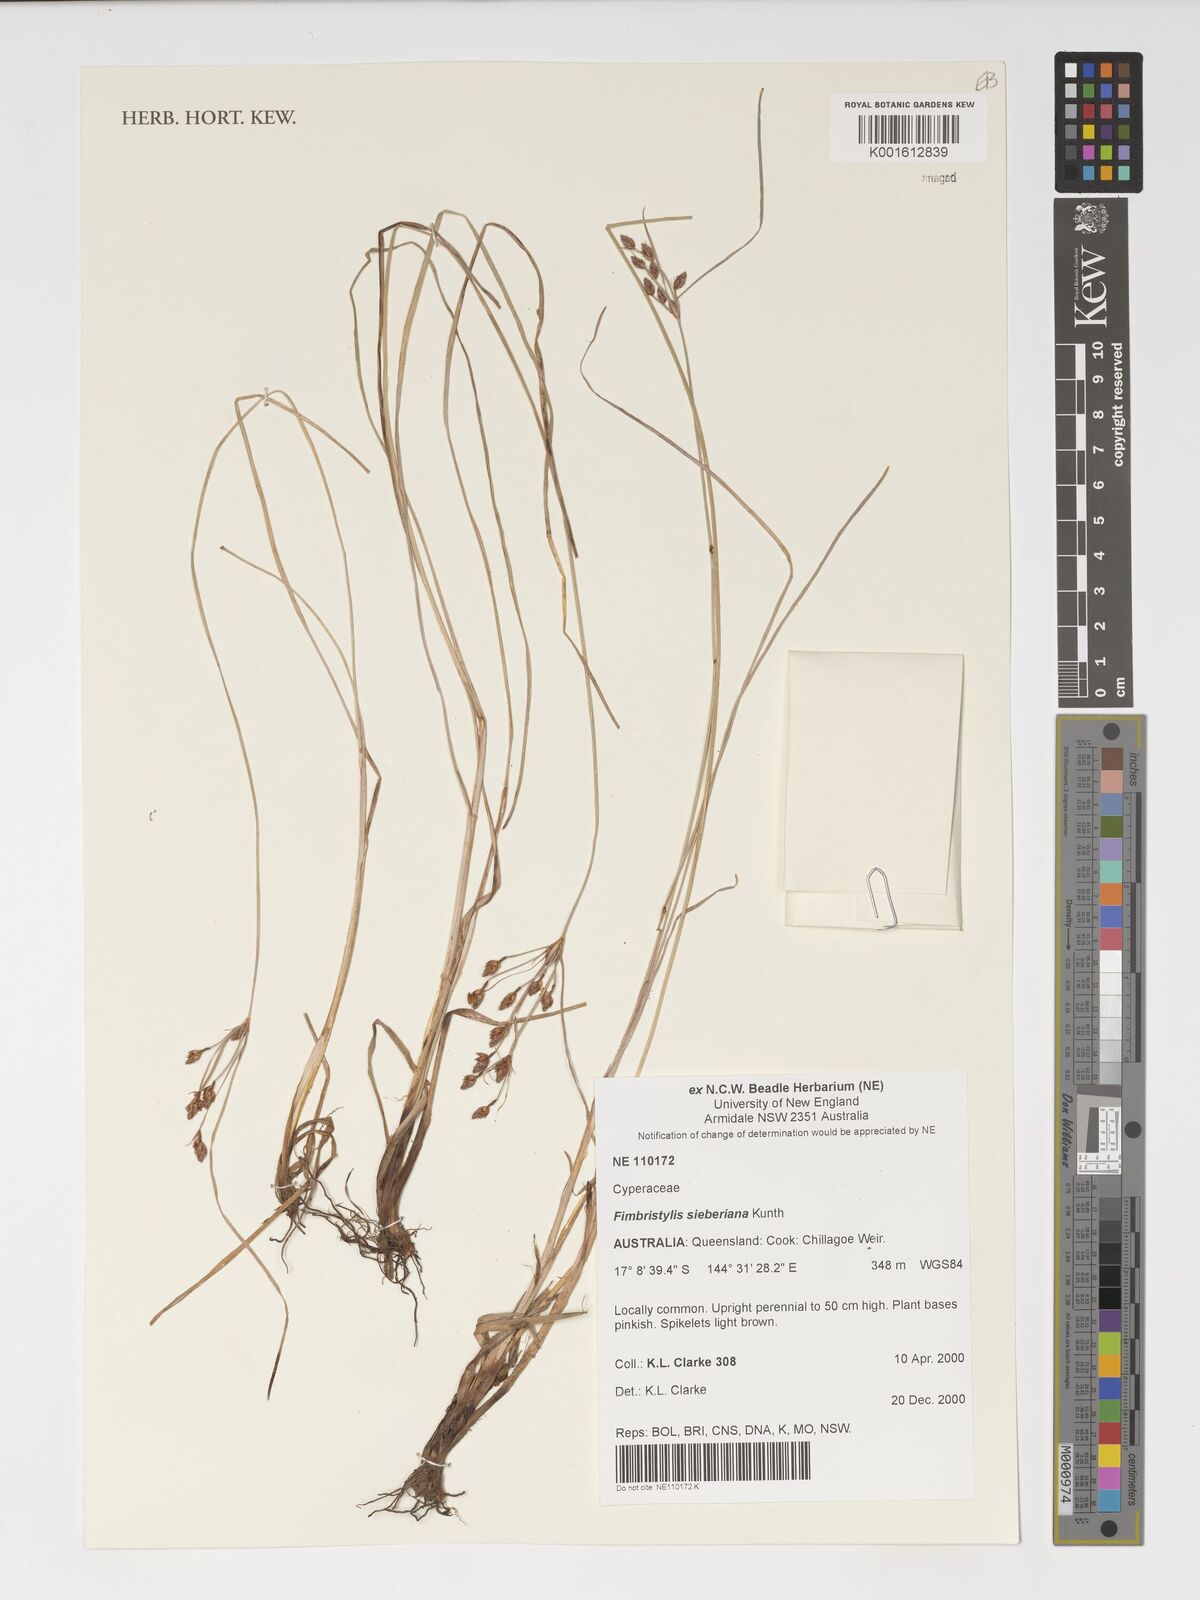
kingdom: Plantae
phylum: Tracheophyta
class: Liliopsida
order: Poales
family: Cyperaceae
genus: Fimbristylis
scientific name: Fimbristylis ferruginea
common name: West indian fimbry
